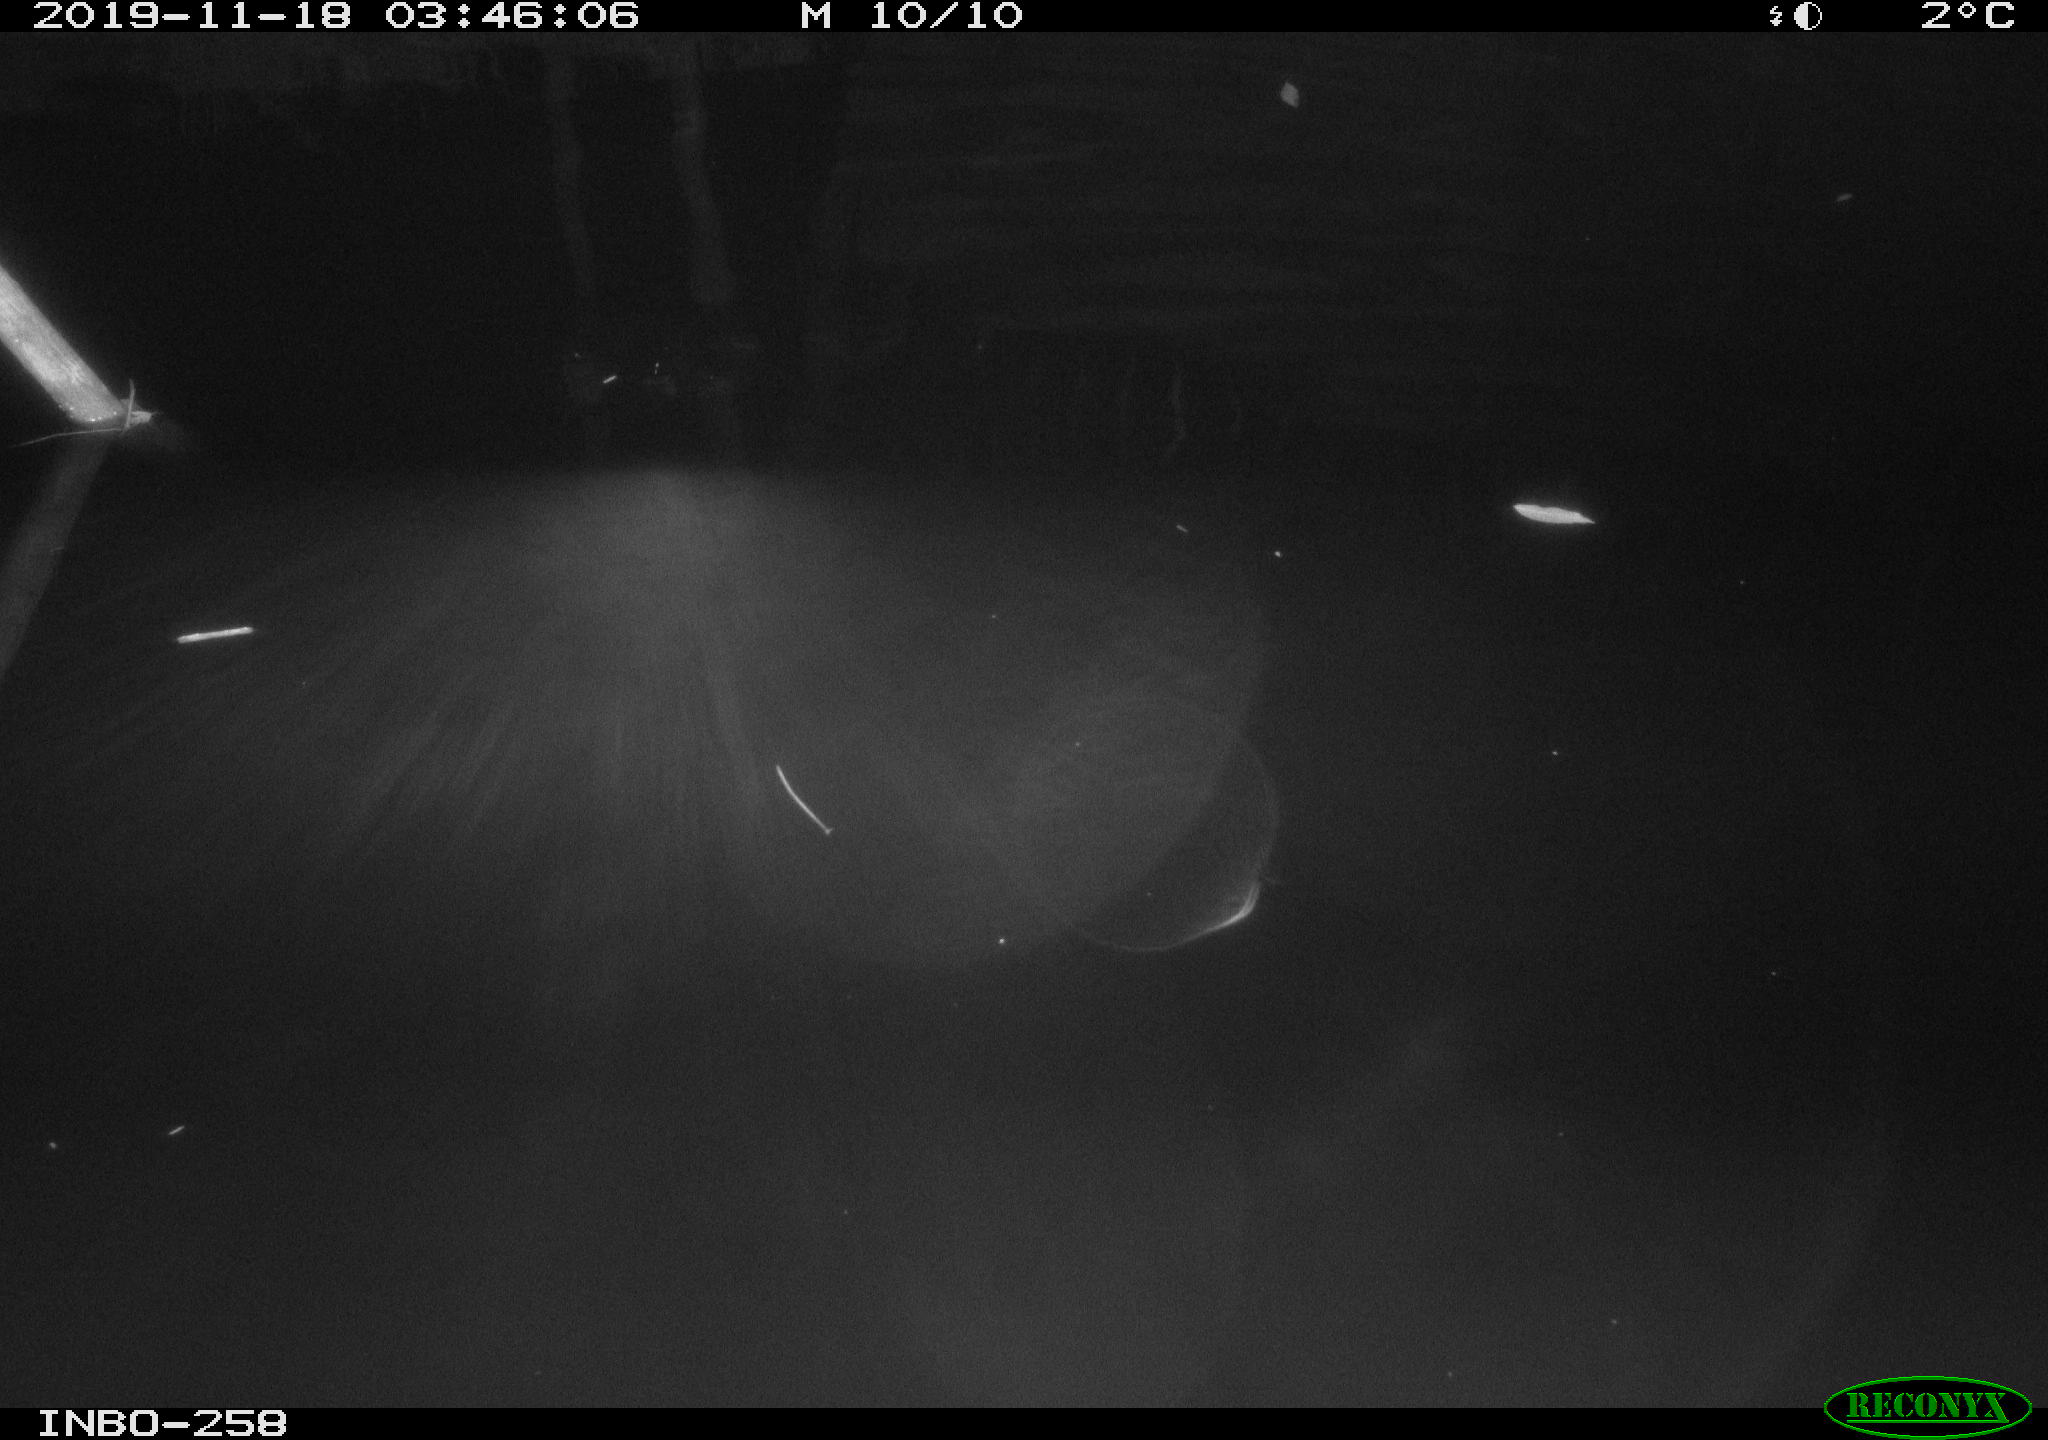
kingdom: Animalia
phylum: Chordata
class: Aves
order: Anseriformes
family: Anatidae
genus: Anas
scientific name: Anas platyrhynchos
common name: Mallard
